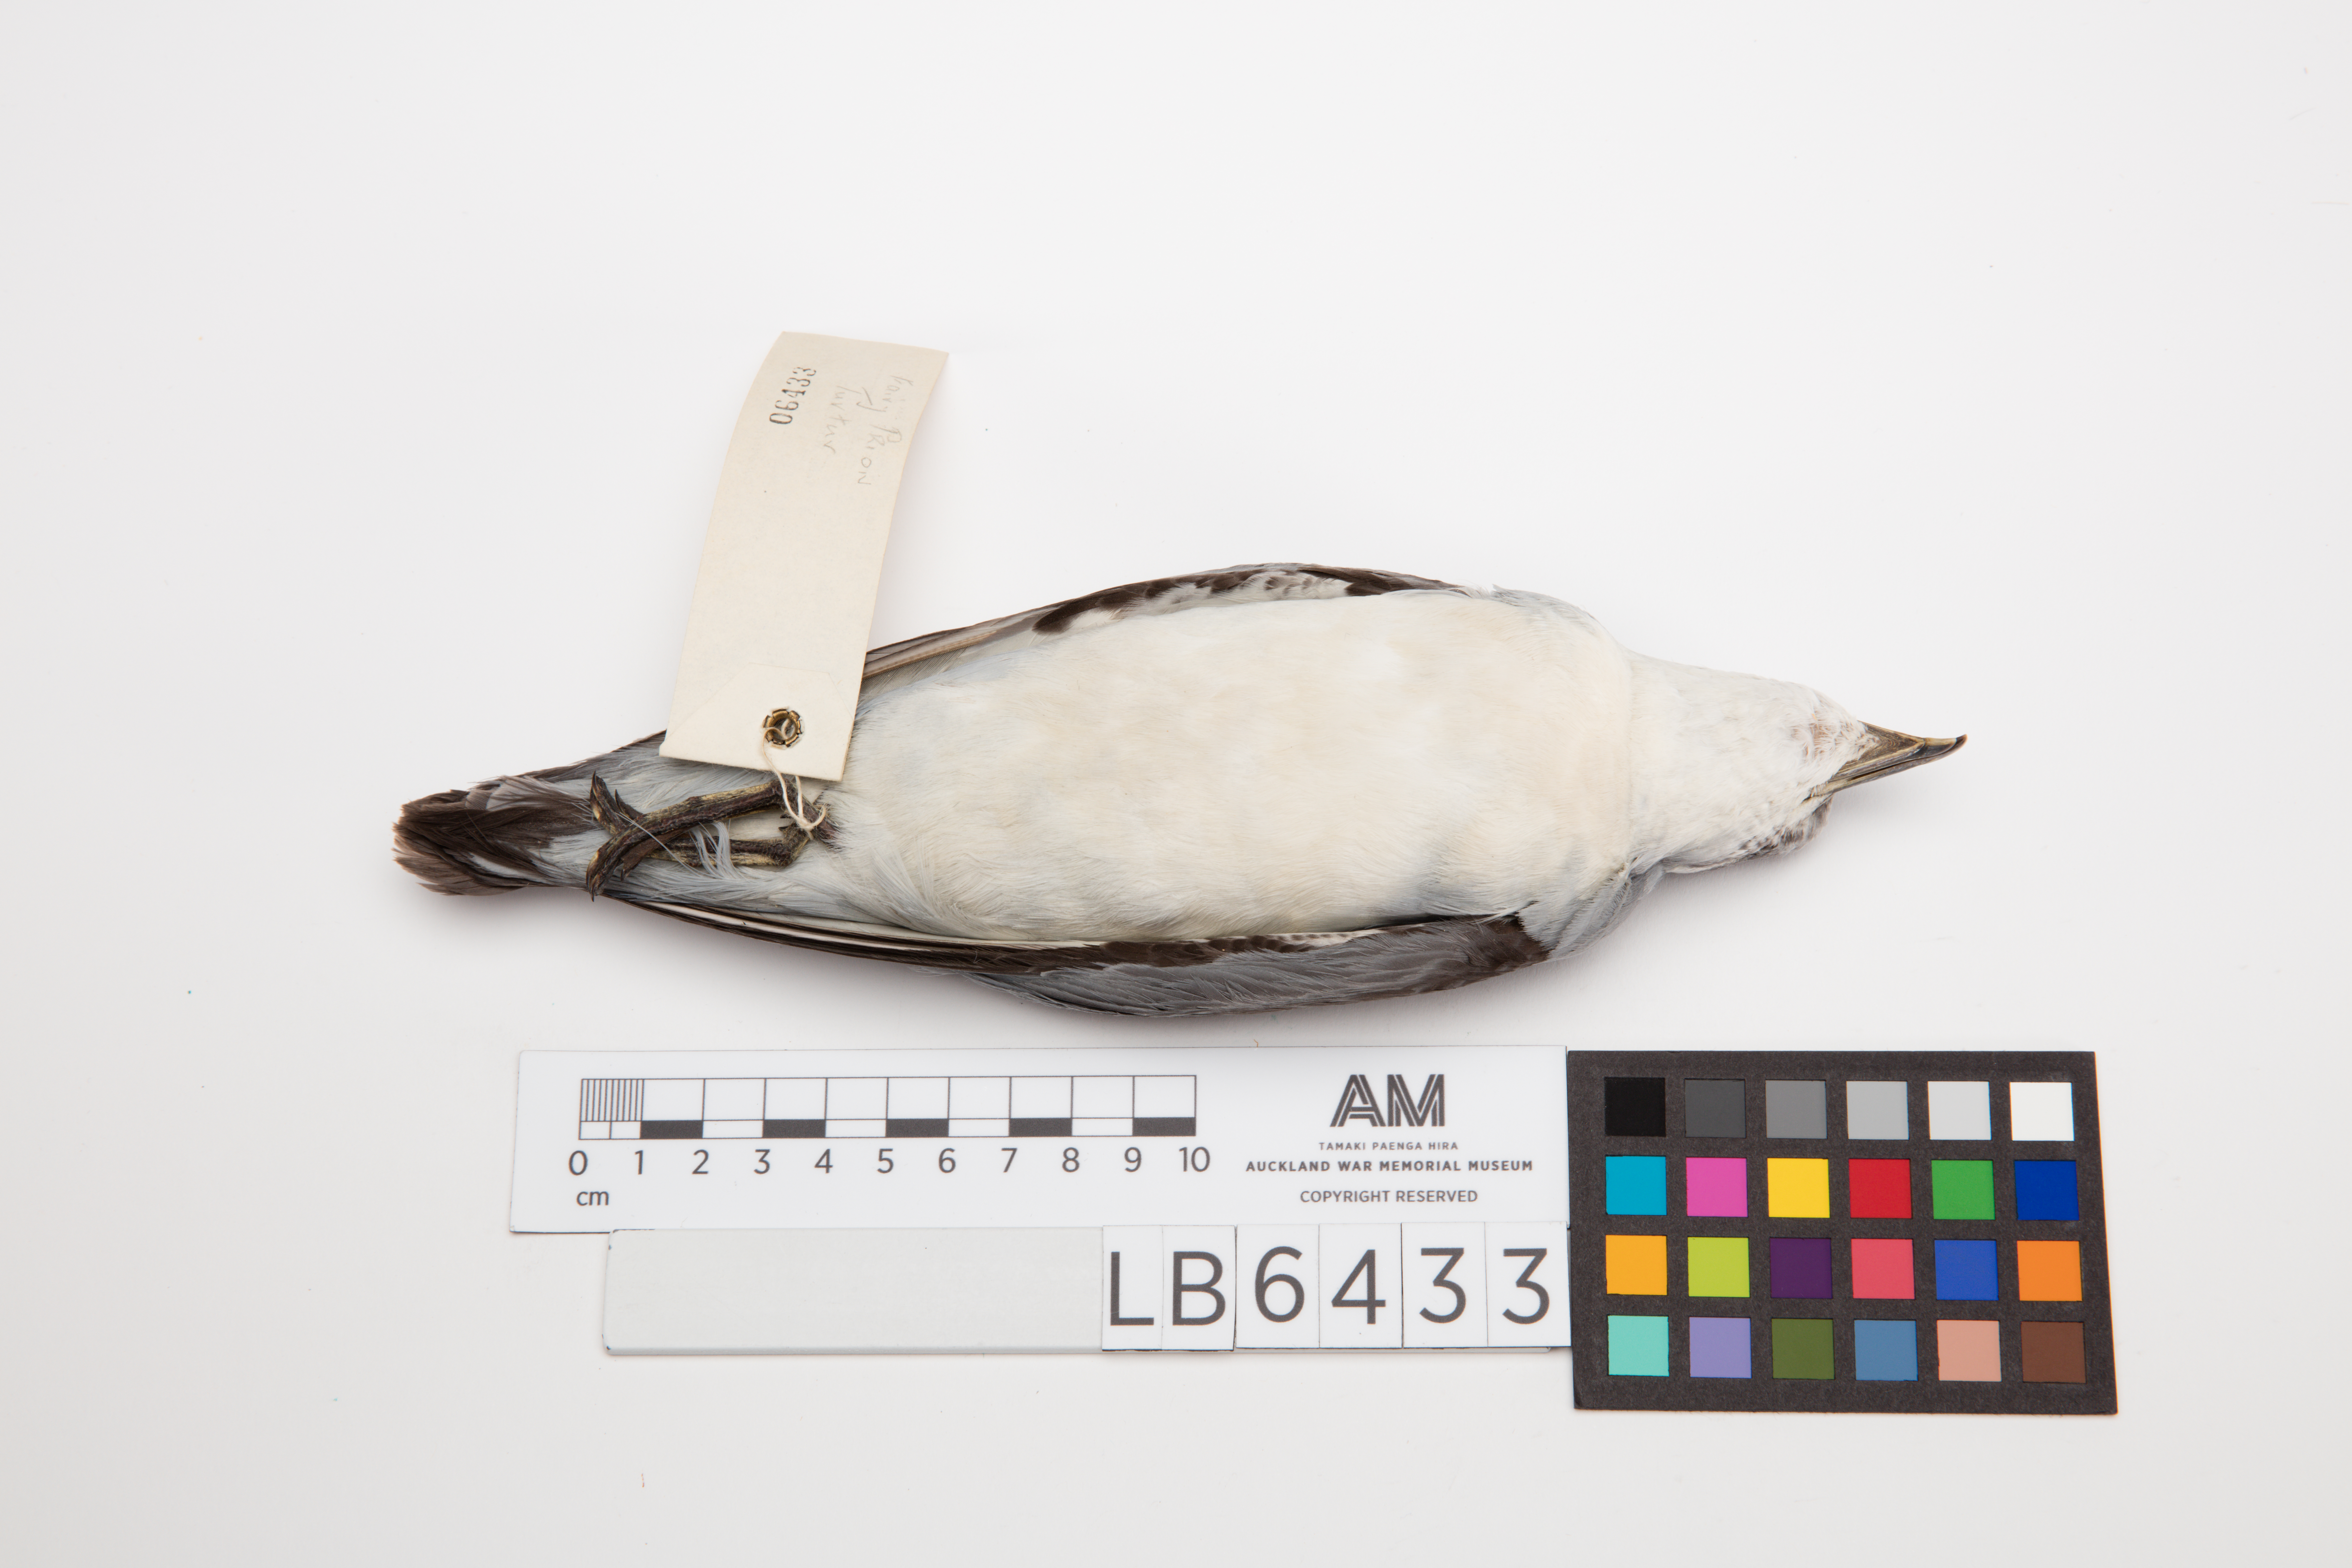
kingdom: Animalia
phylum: Chordata
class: Aves
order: Procellariiformes
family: Procellariidae
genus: Pachyptila
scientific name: Pachyptila turtur
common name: Fairy prion
